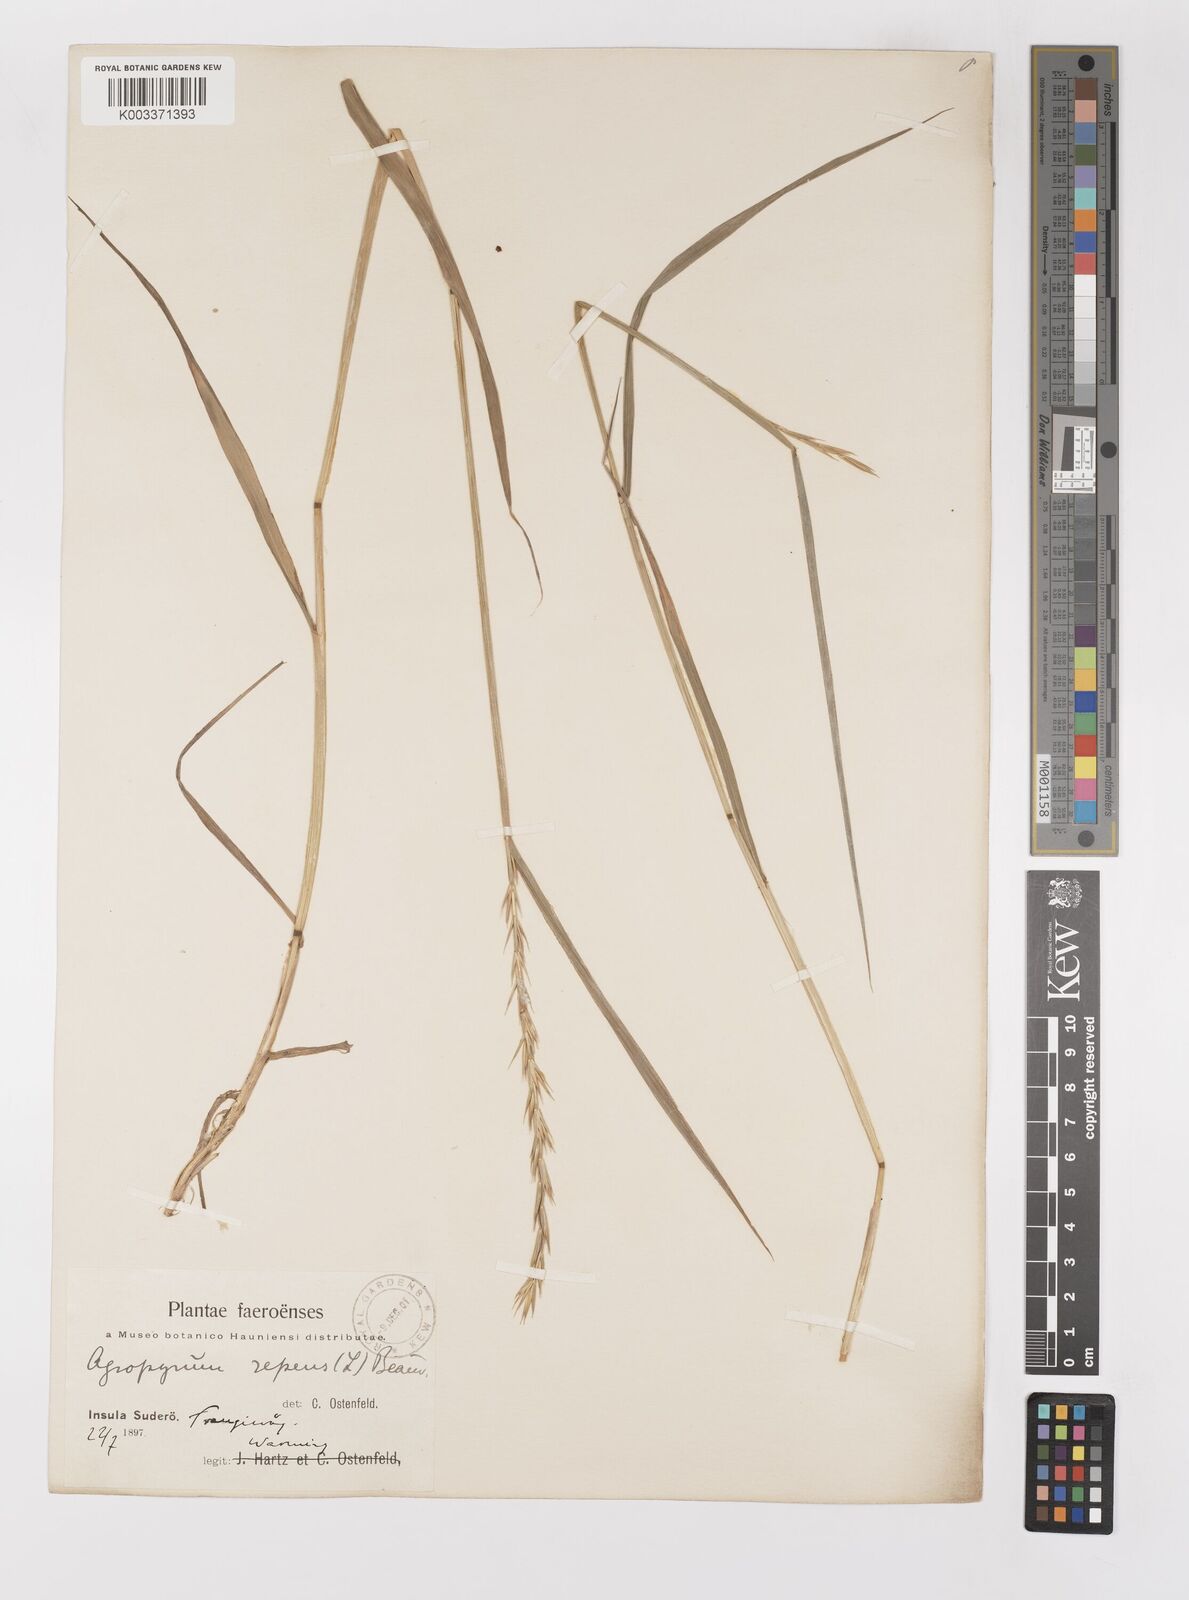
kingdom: Plantae
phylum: Tracheophyta
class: Liliopsida
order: Poales
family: Poaceae
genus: Elymus
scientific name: Elymus repens
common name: Quackgrass
